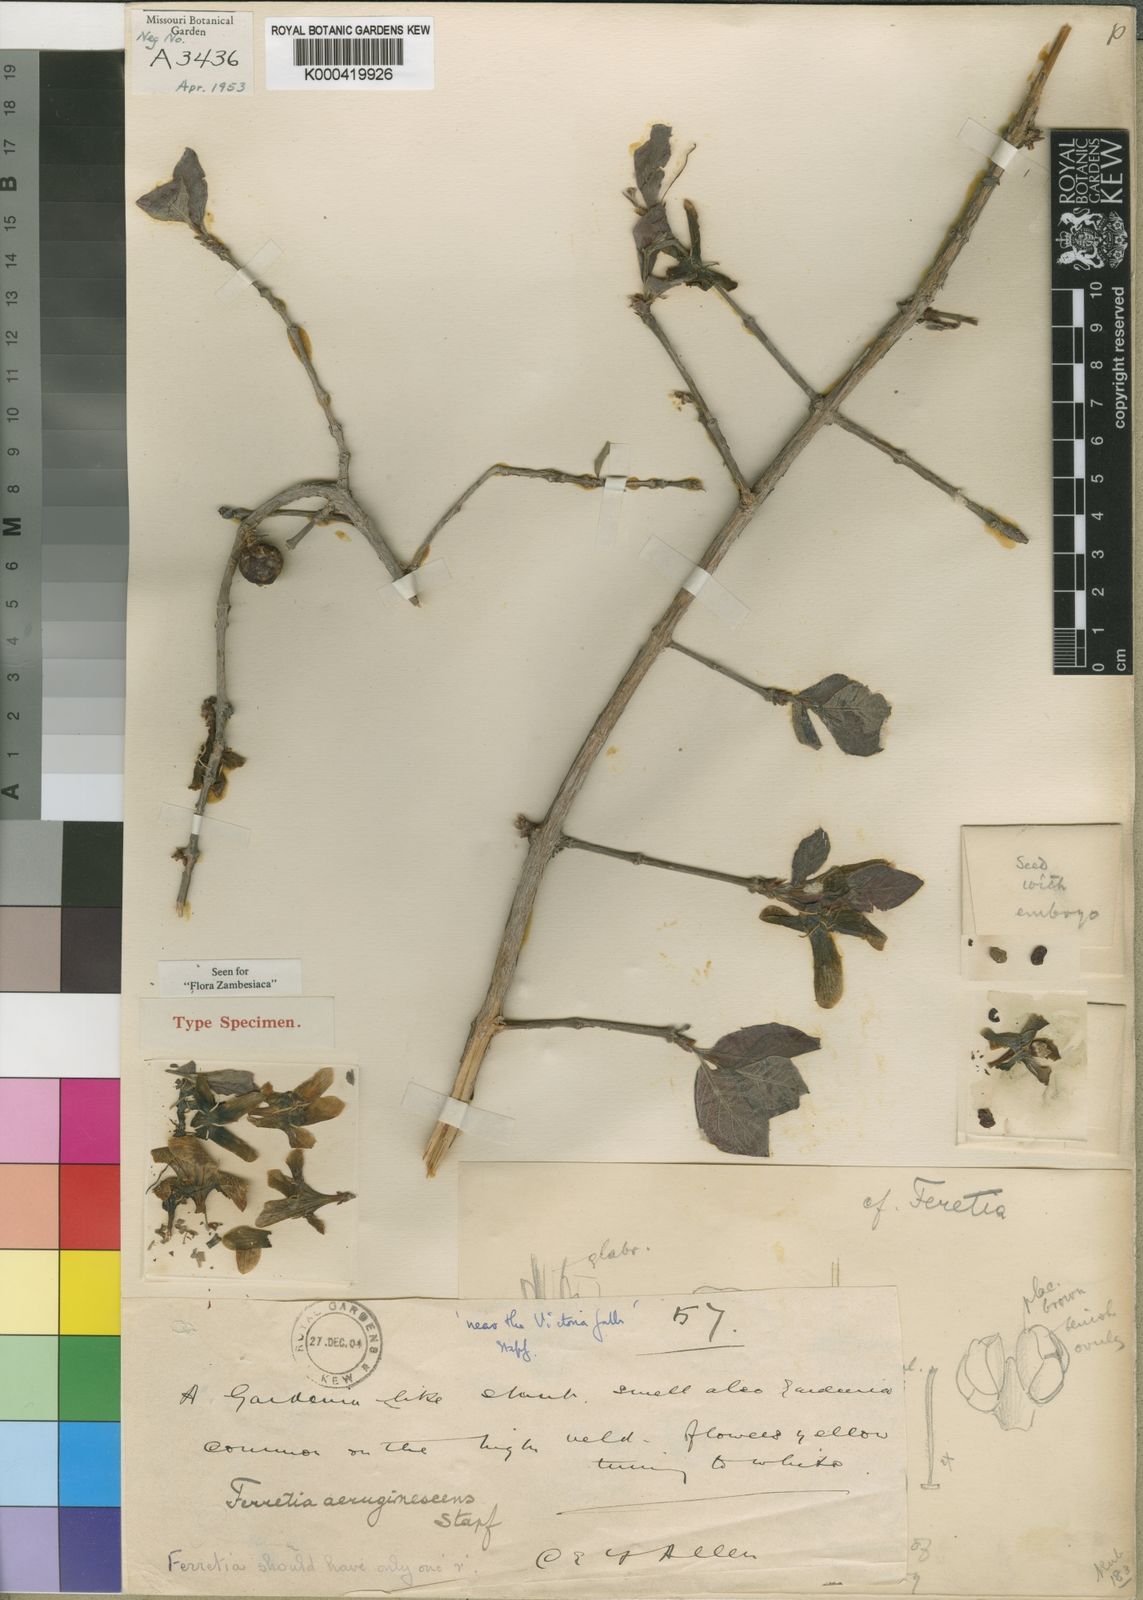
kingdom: Plantae
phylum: Tracheophyta
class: Magnoliopsida
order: Gentianales
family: Rubiaceae
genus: Feretia
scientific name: Feretia aeruginescens
